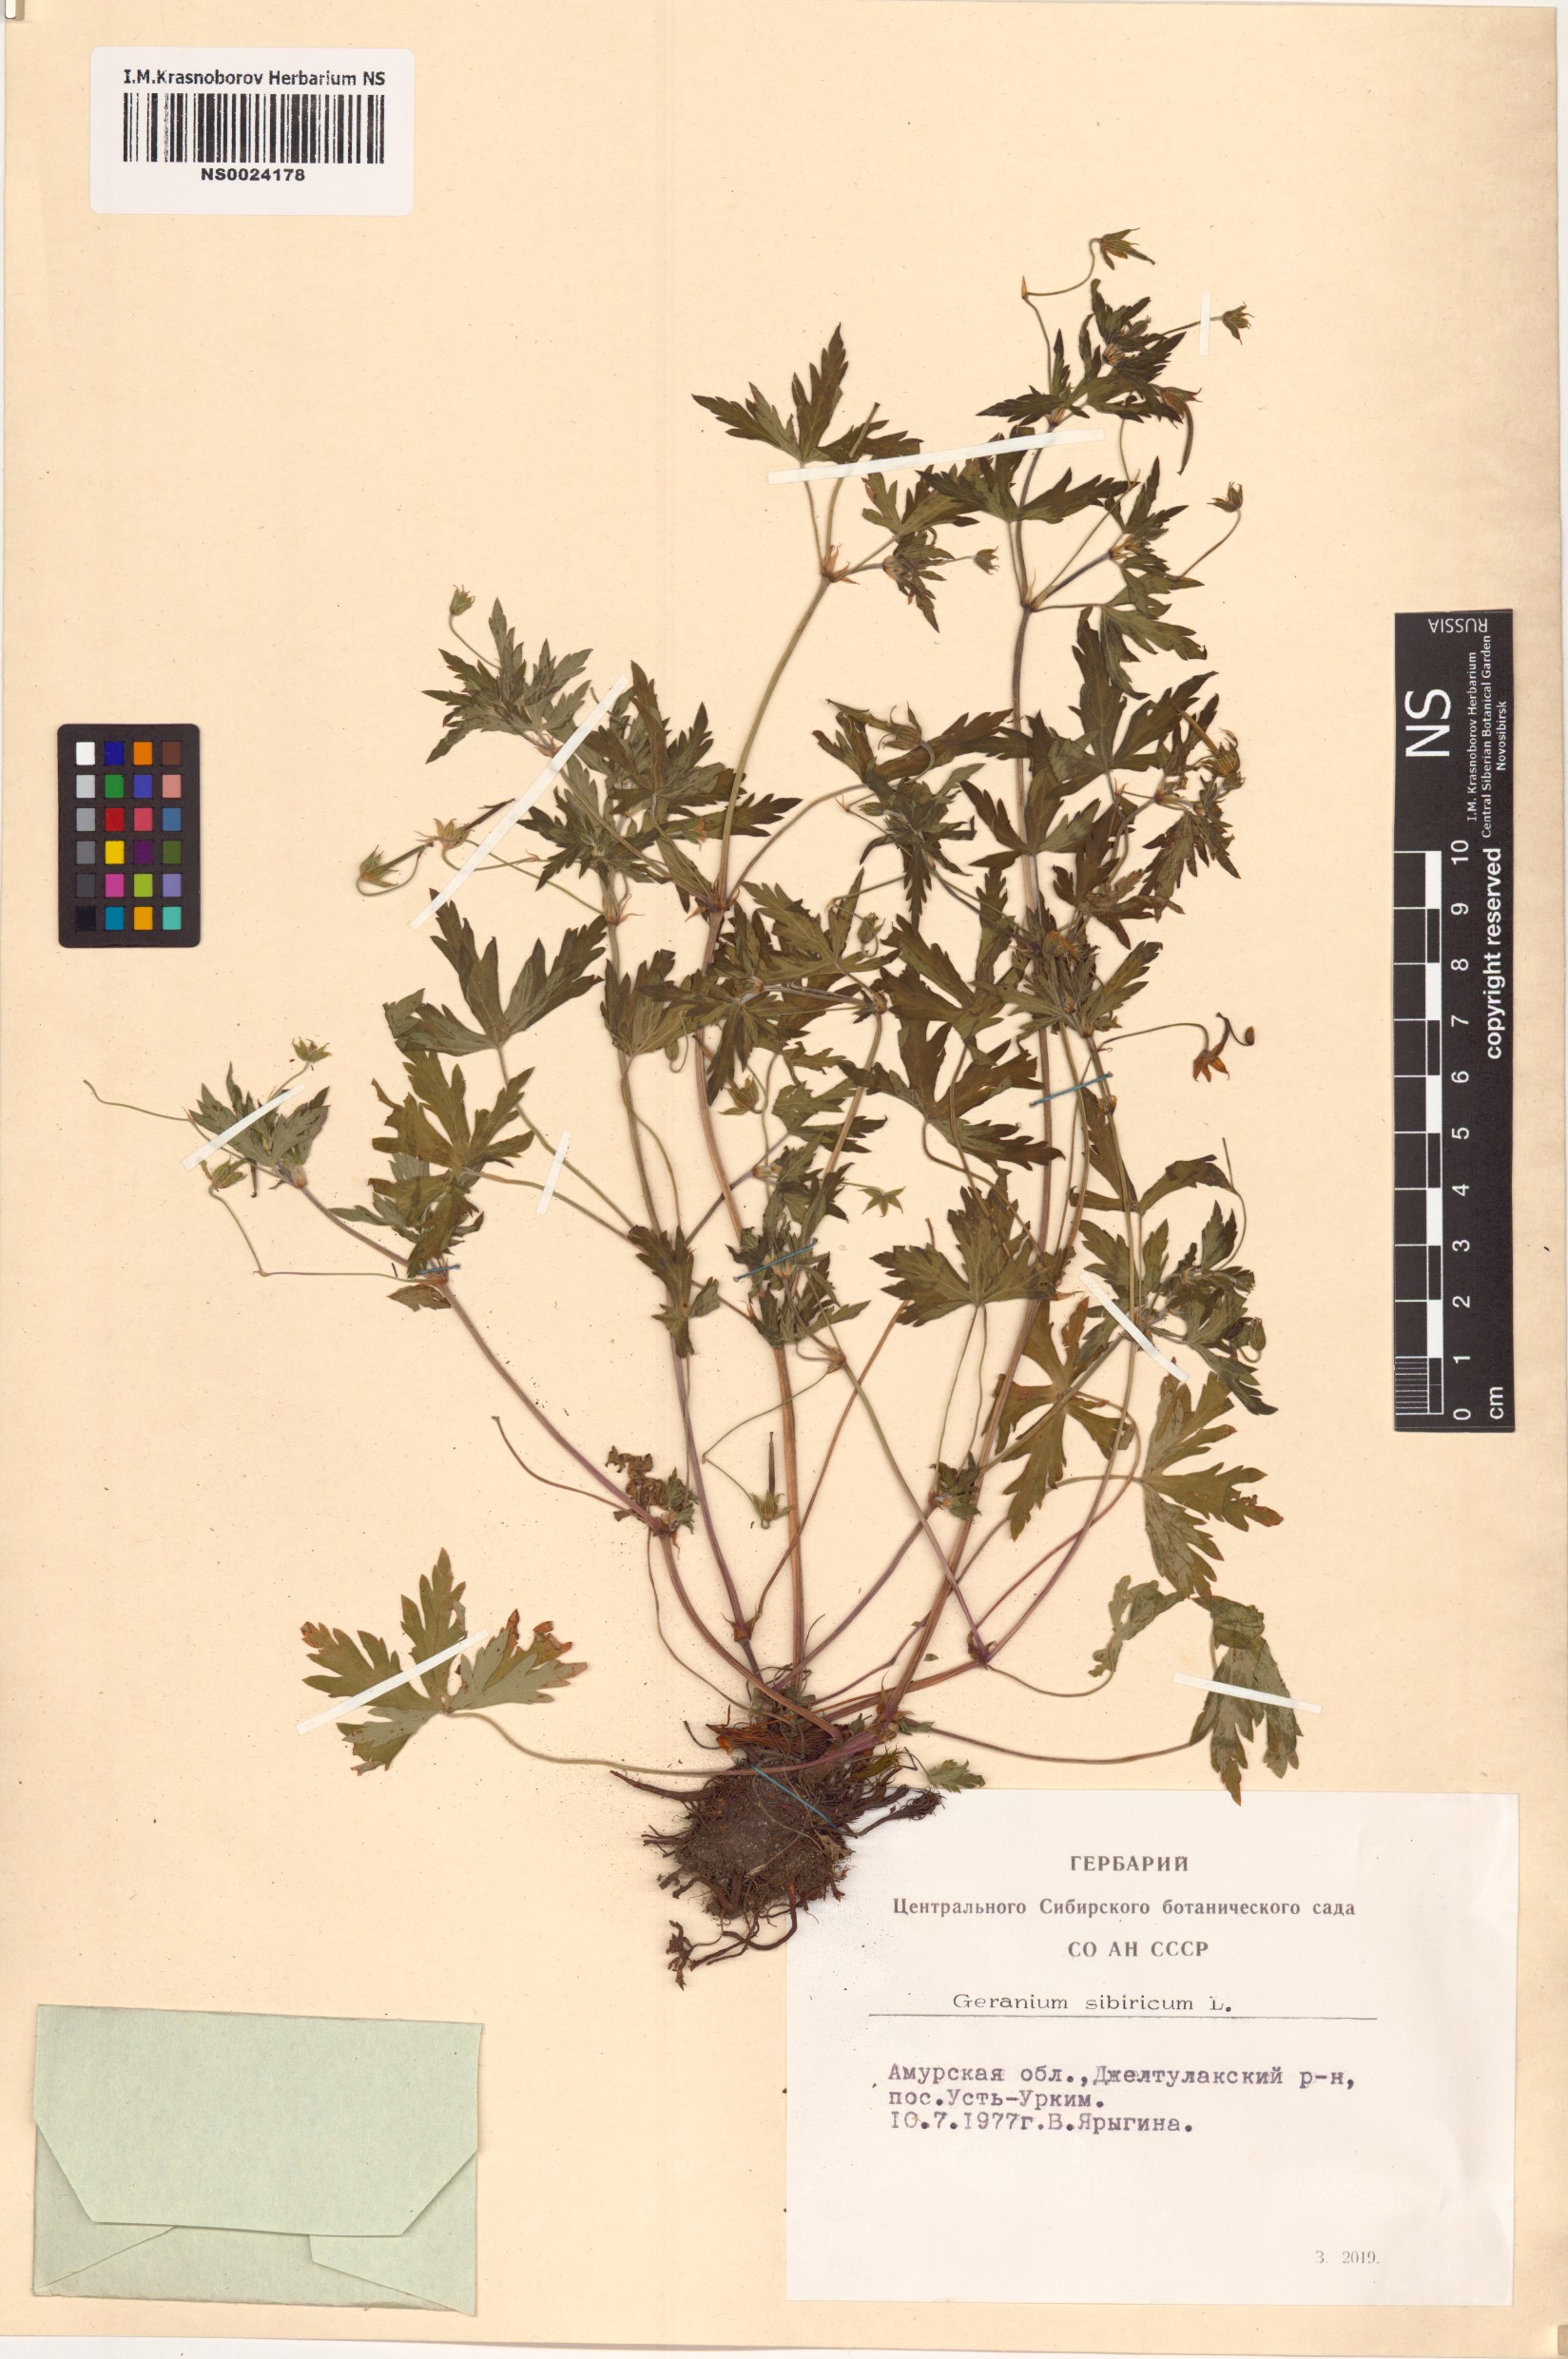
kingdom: Plantae
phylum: Tracheophyta
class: Magnoliopsida
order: Geraniales
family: Geraniaceae
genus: Geranium
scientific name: Geranium sibiricum
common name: Siberian crane's-bill
